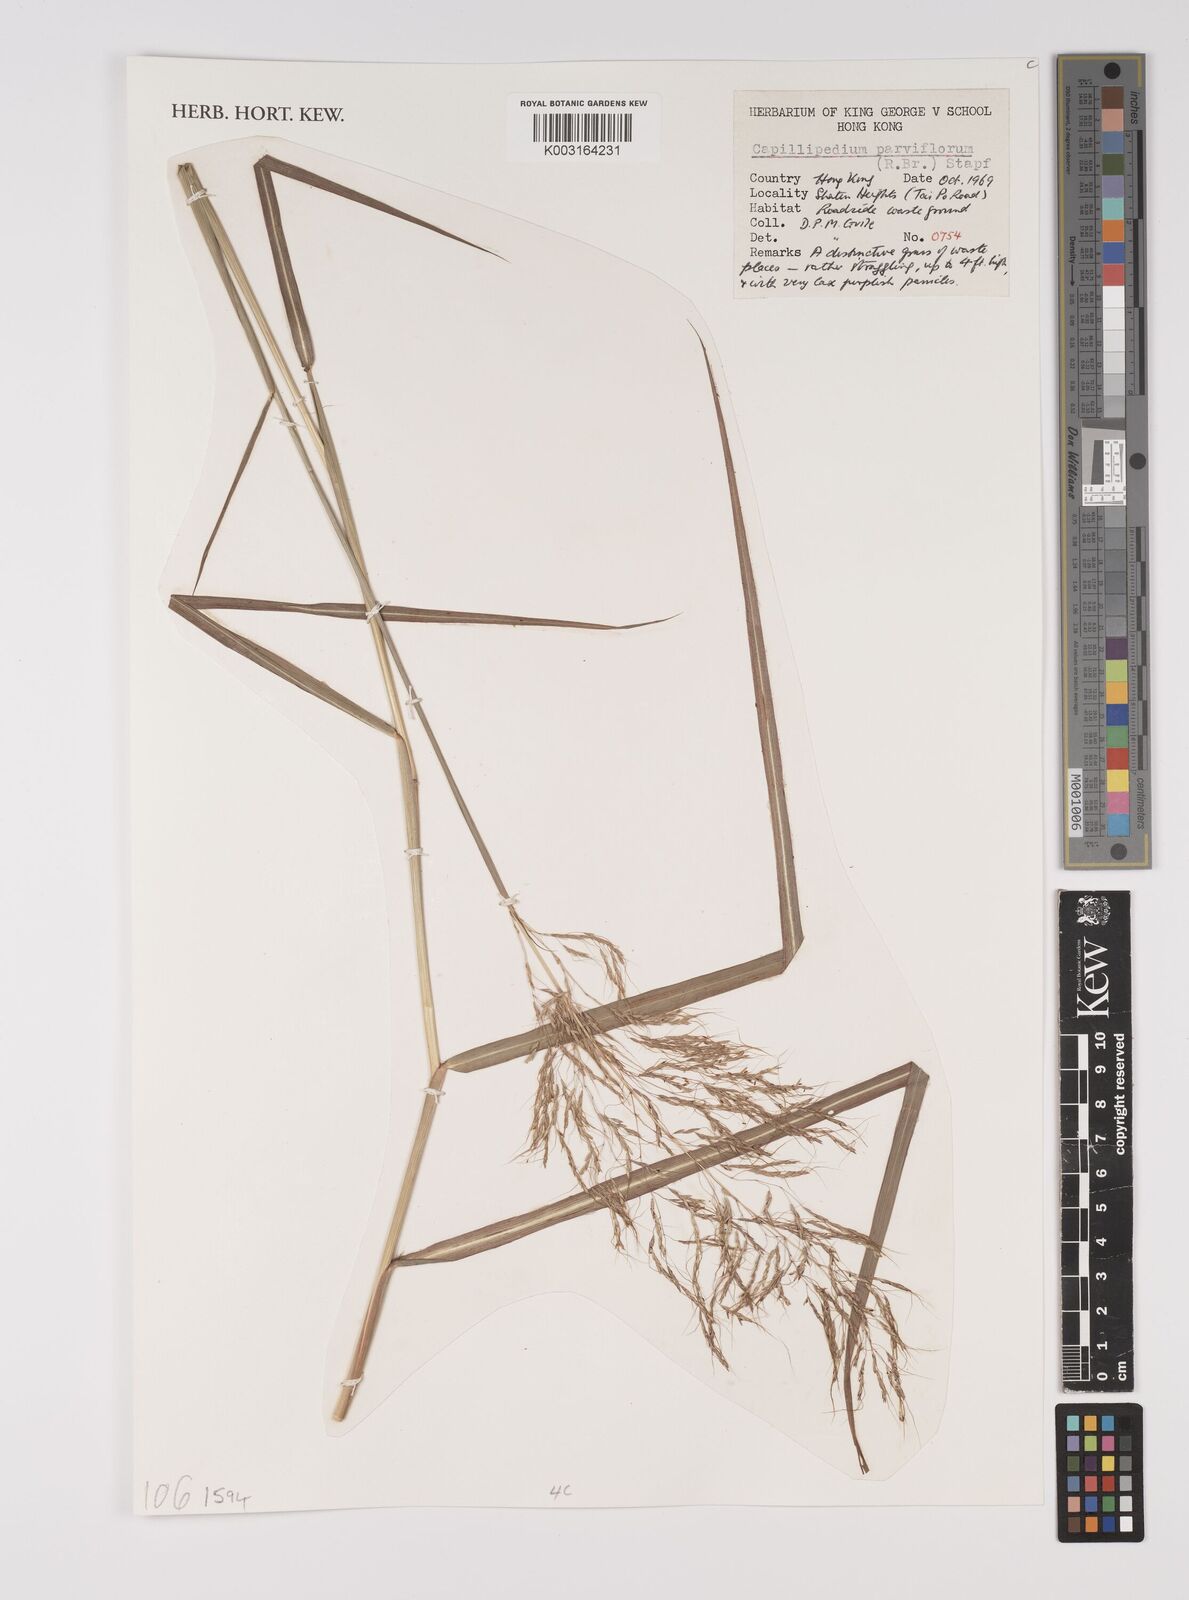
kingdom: Plantae
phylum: Tracheophyta
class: Liliopsida
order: Poales
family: Poaceae
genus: Capillipedium
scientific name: Capillipedium parviflorum
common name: Golden-beard
